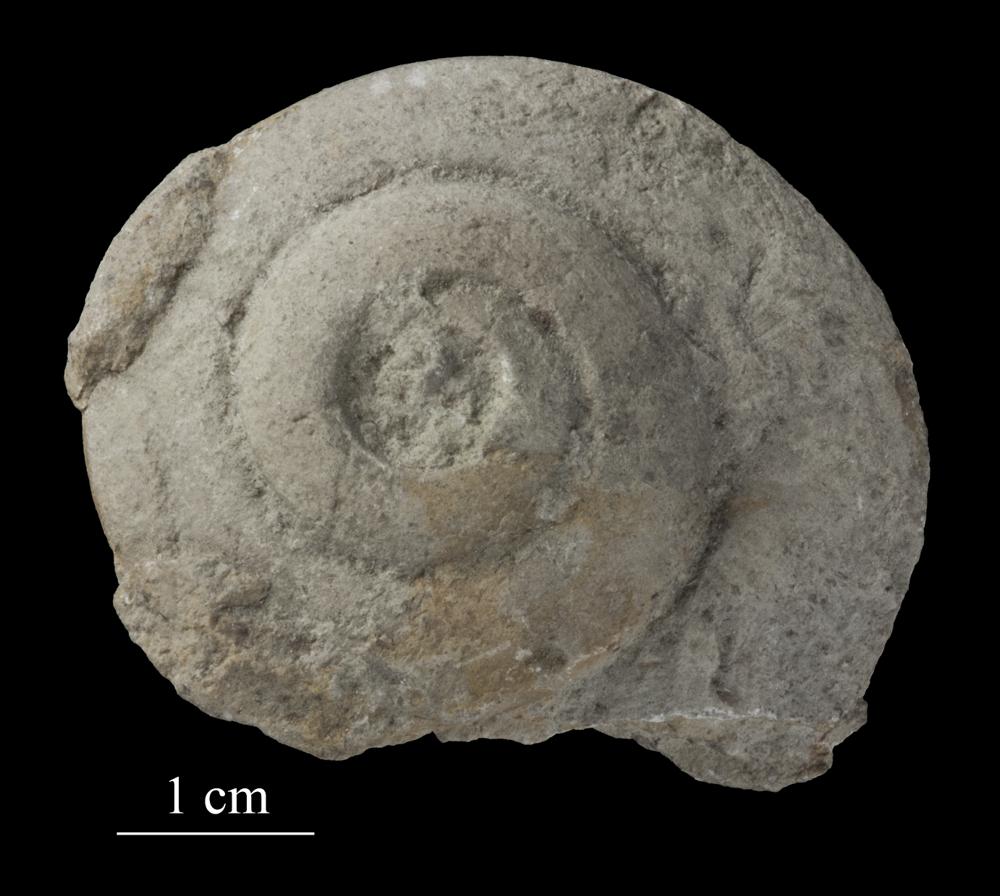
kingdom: Animalia
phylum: Mollusca
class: Gastropoda
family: Lesueurillidae
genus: Pararaphistoma
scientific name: Pararaphistoma Helicites qualteriata
